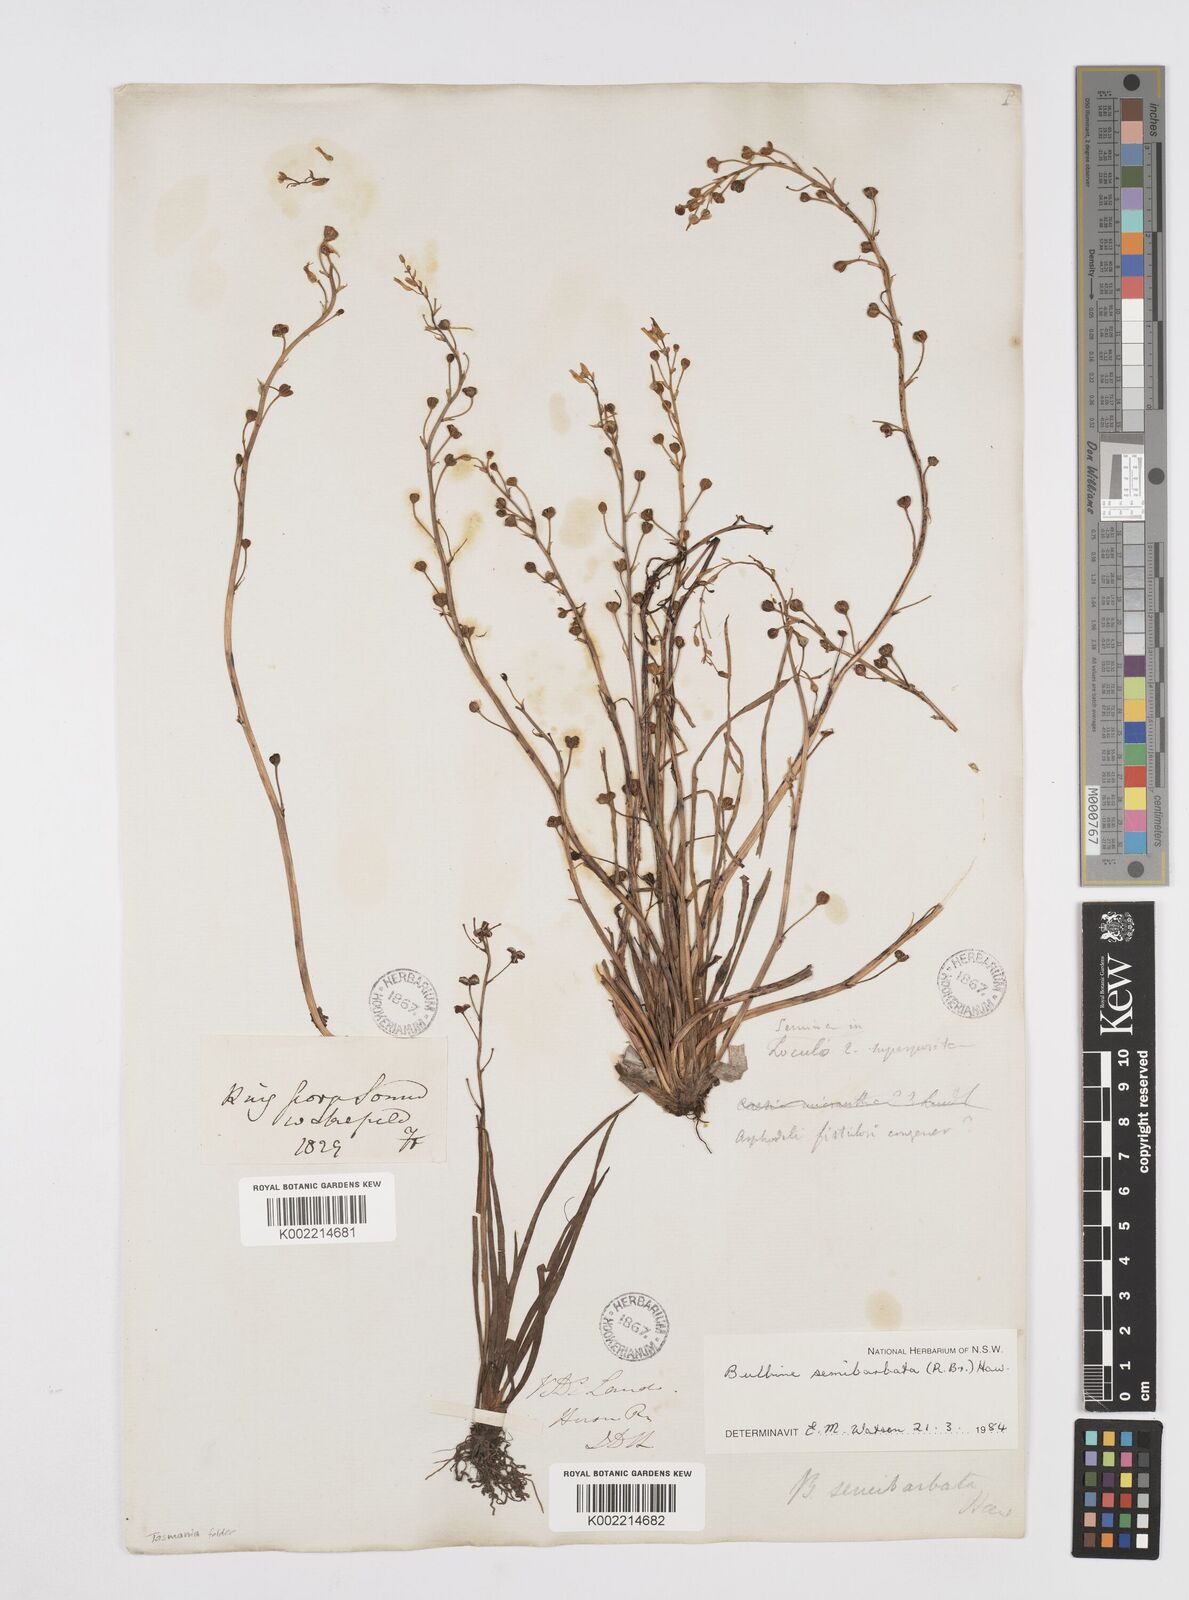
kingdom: Plantae
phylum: Tracheophyta
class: Liliopsida
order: Asparagales
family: Asphodelaceae
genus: Bulbine
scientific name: Bulbine semibarbata
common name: Leek lily
